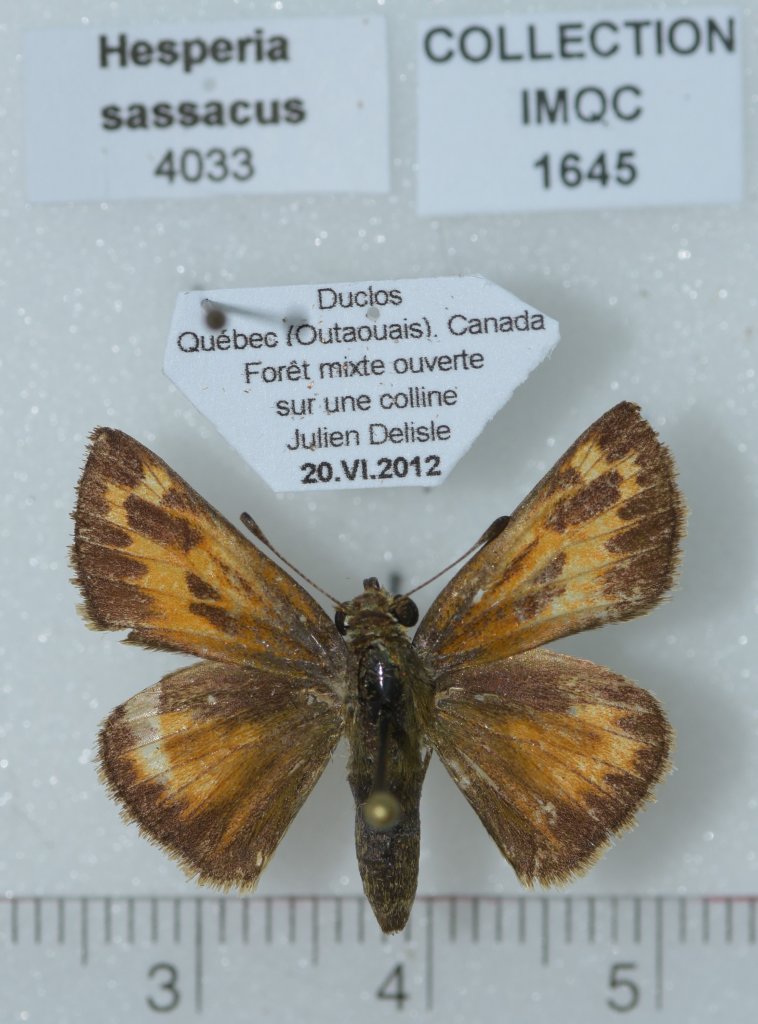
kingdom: Animalia
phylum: Arthropoda
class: Insecta
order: Lepidoptera
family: Hesperiidae
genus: Hesperia
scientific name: Hesperia sassacus
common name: Sassacus Skipper
